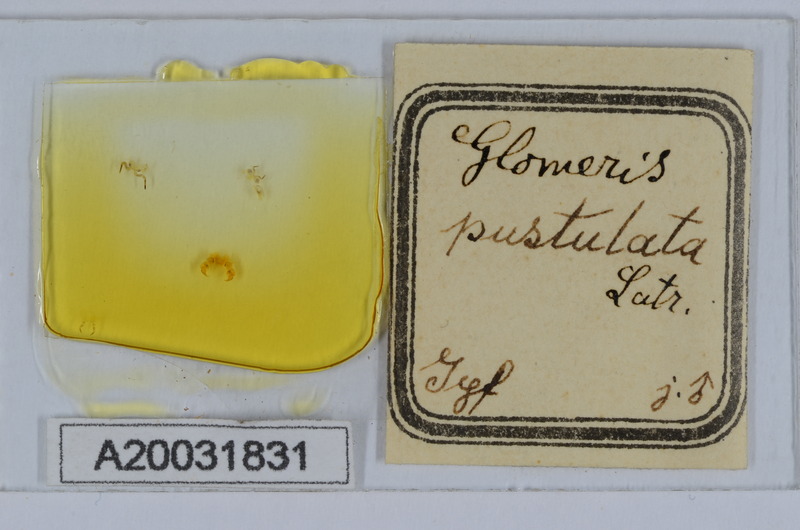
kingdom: Animalia
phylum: Arthropoda
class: Diplopoda
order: Glomerida
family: Glomeridae
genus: Glomeris
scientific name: Glomeris pustulata
